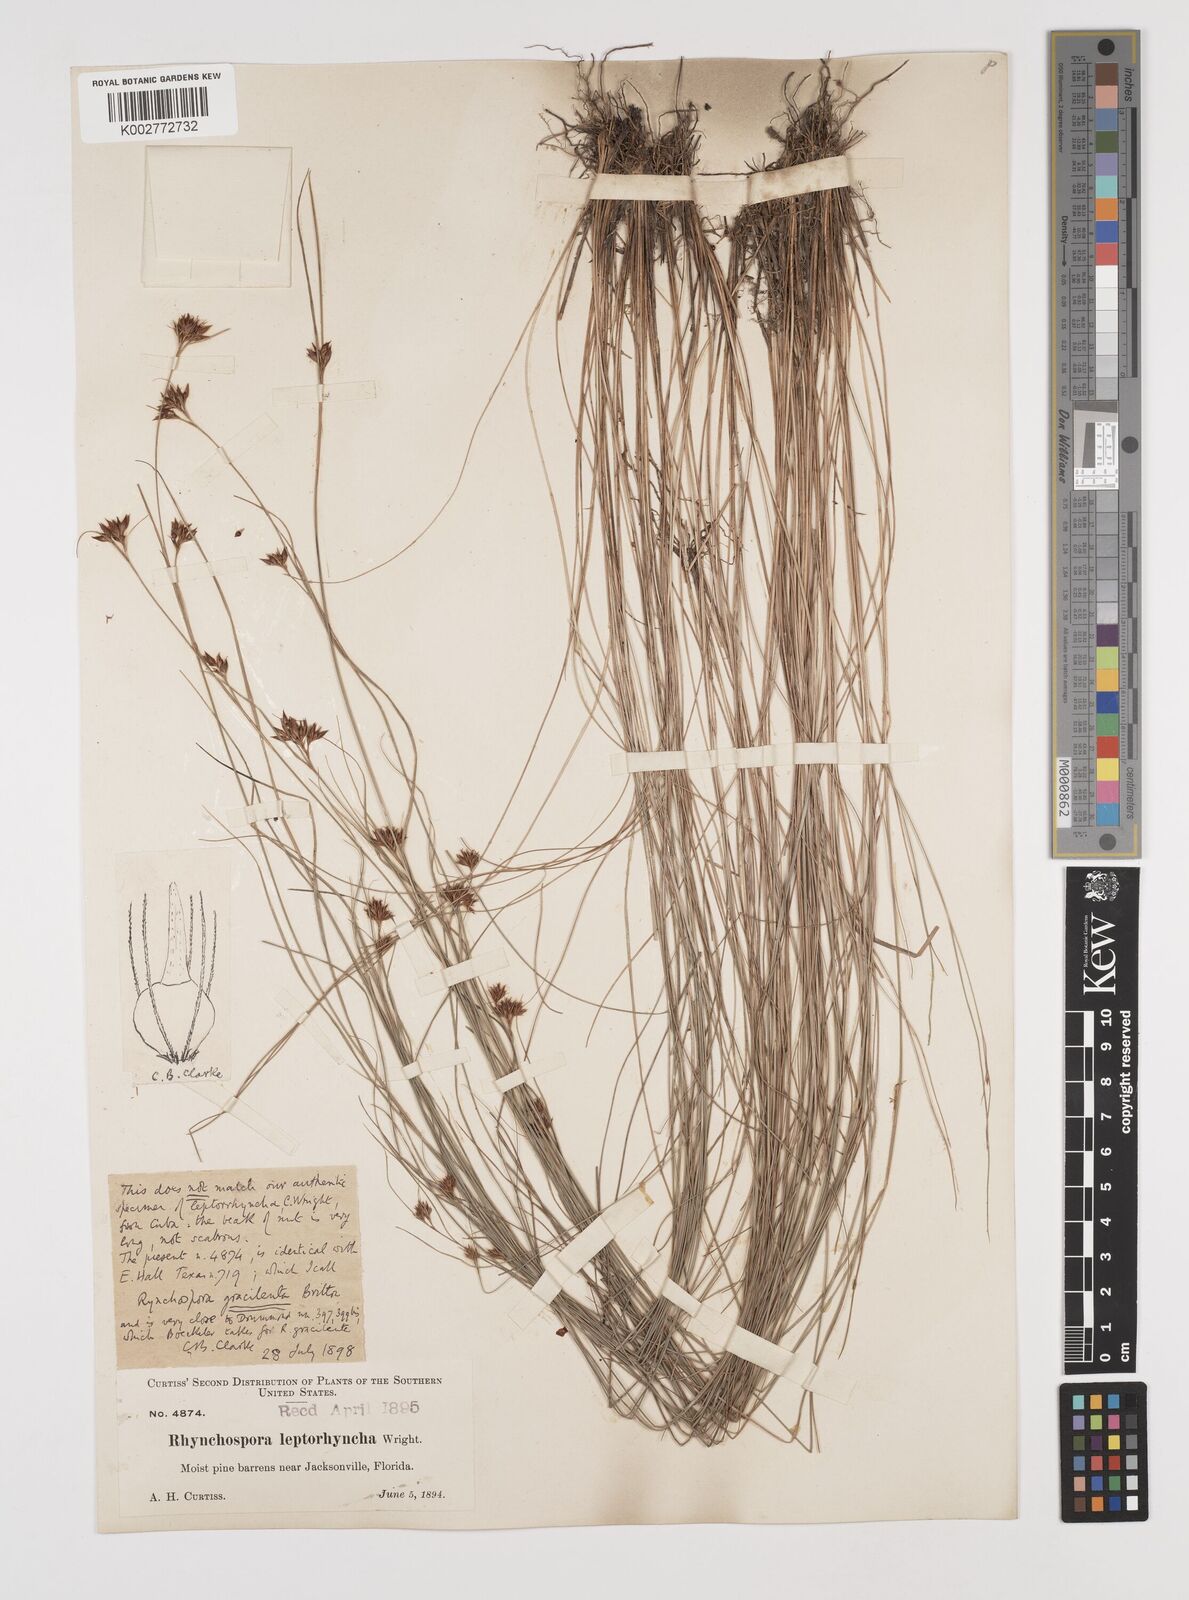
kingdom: Plantae
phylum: Tracheophyta
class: Liliopsida
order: Poales
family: Cyperaceae
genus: Rhynchospora
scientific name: Rhynchospora gracilenta
